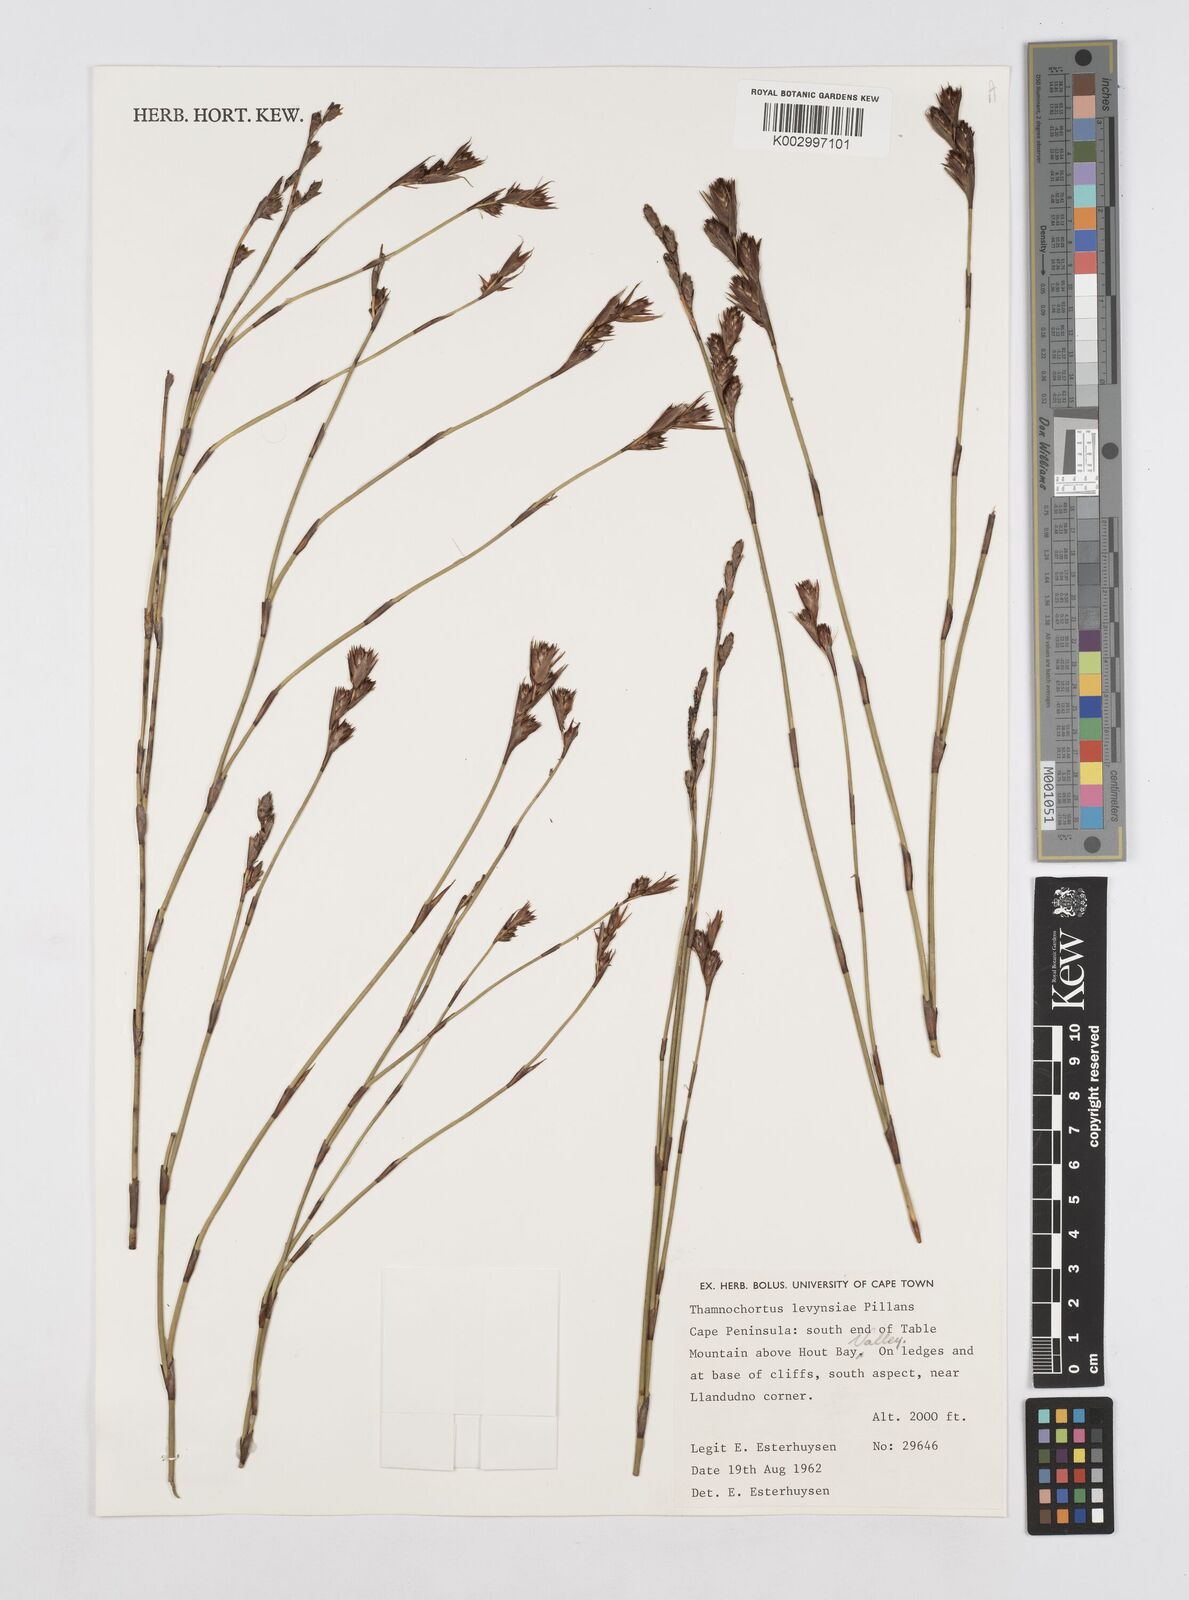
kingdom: Plantae
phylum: Tracheophyta
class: Liliopsida
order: Poales
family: Restionaceae
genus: Thamnochortus
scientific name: Thamnochortus levynsiae
